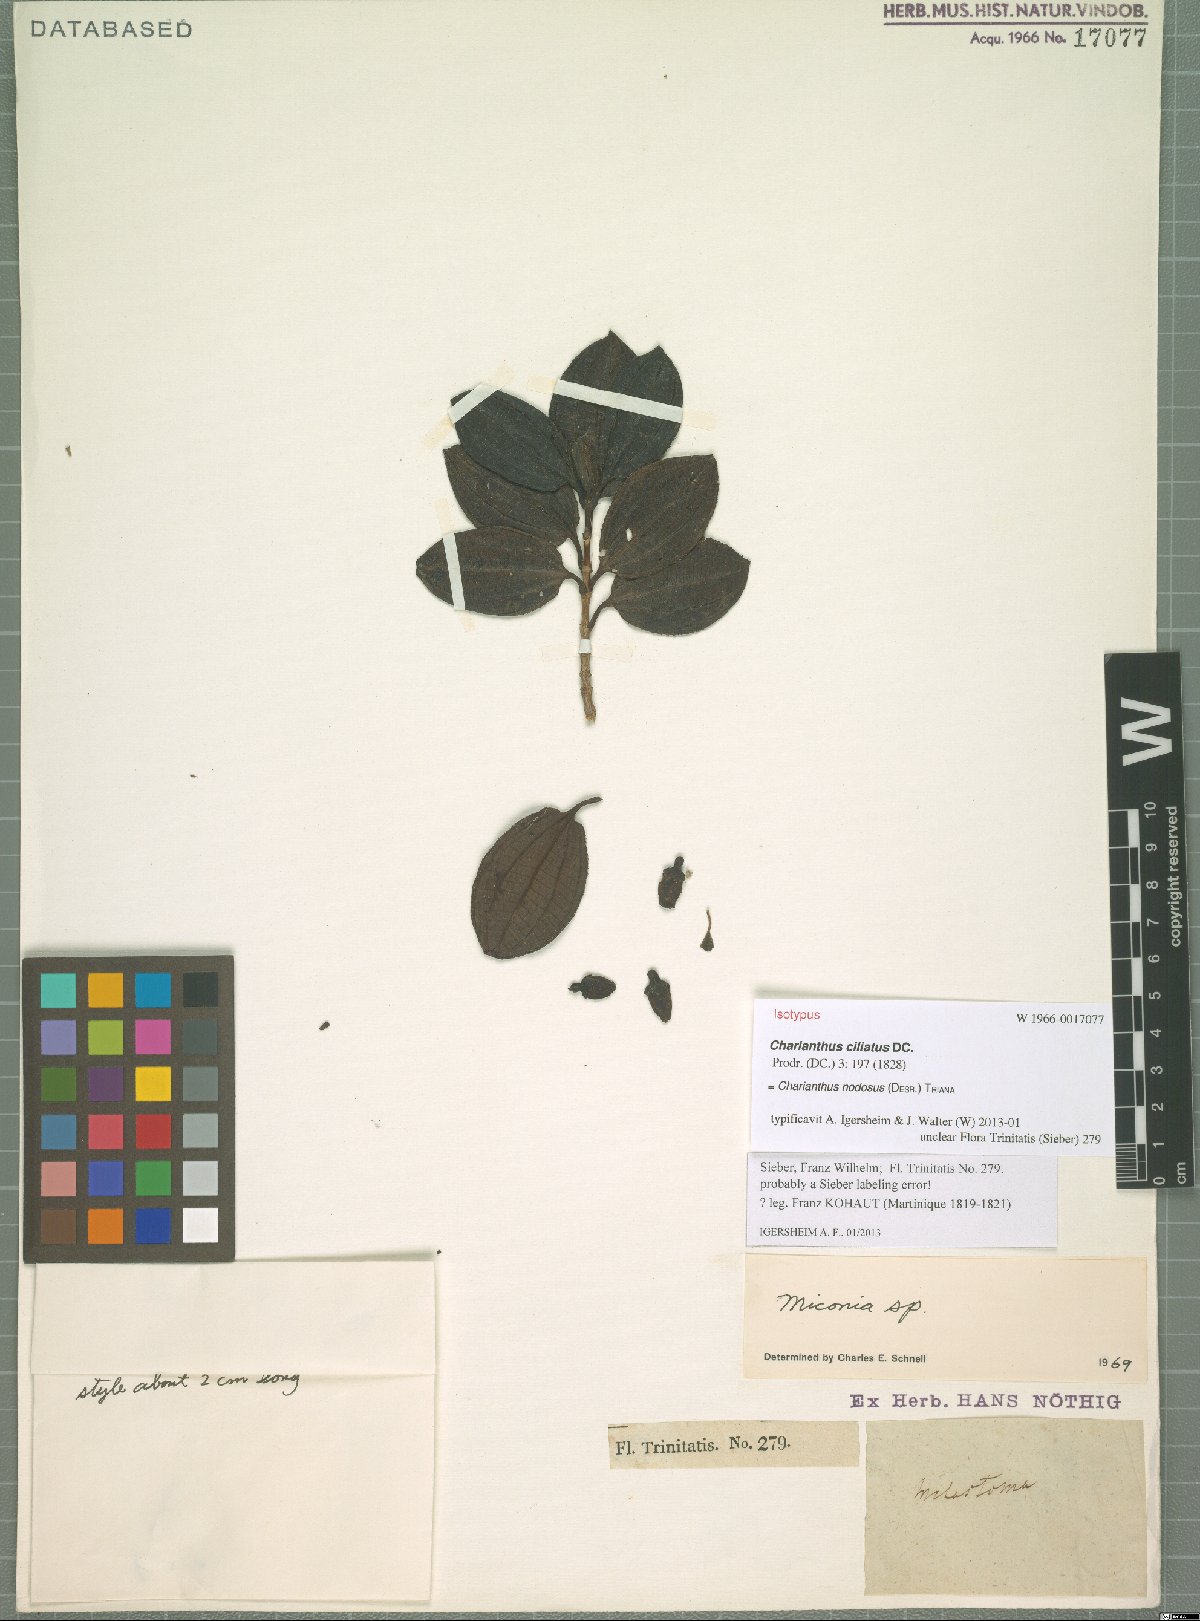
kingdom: Plantae
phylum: Tracheophyta
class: Magnoliopsida
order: Myrtales
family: Melastomataceae
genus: Miconia
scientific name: Miconia leblondii
